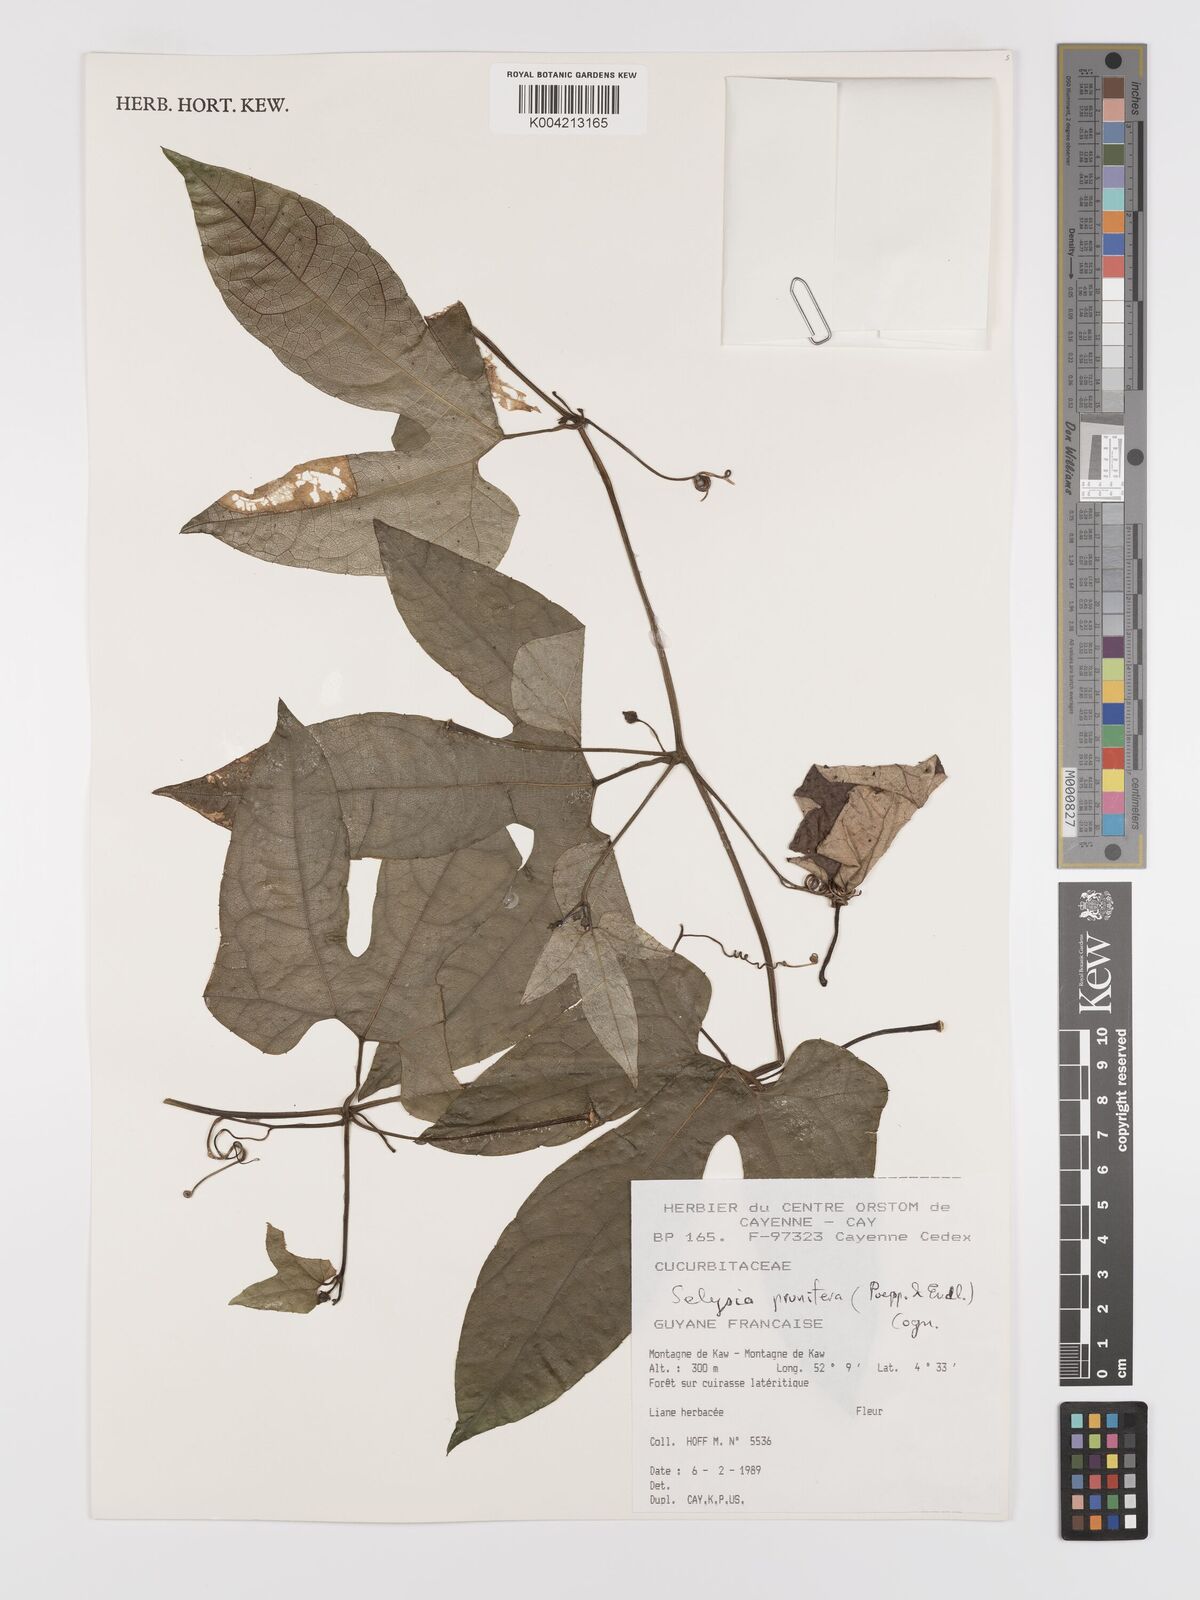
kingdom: Plantae
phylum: Tracheophyta
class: Magnoliopsida
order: Cucurbitales
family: Cucurbitaceae
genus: Cayaponia
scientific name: Cayaponia prunifera
